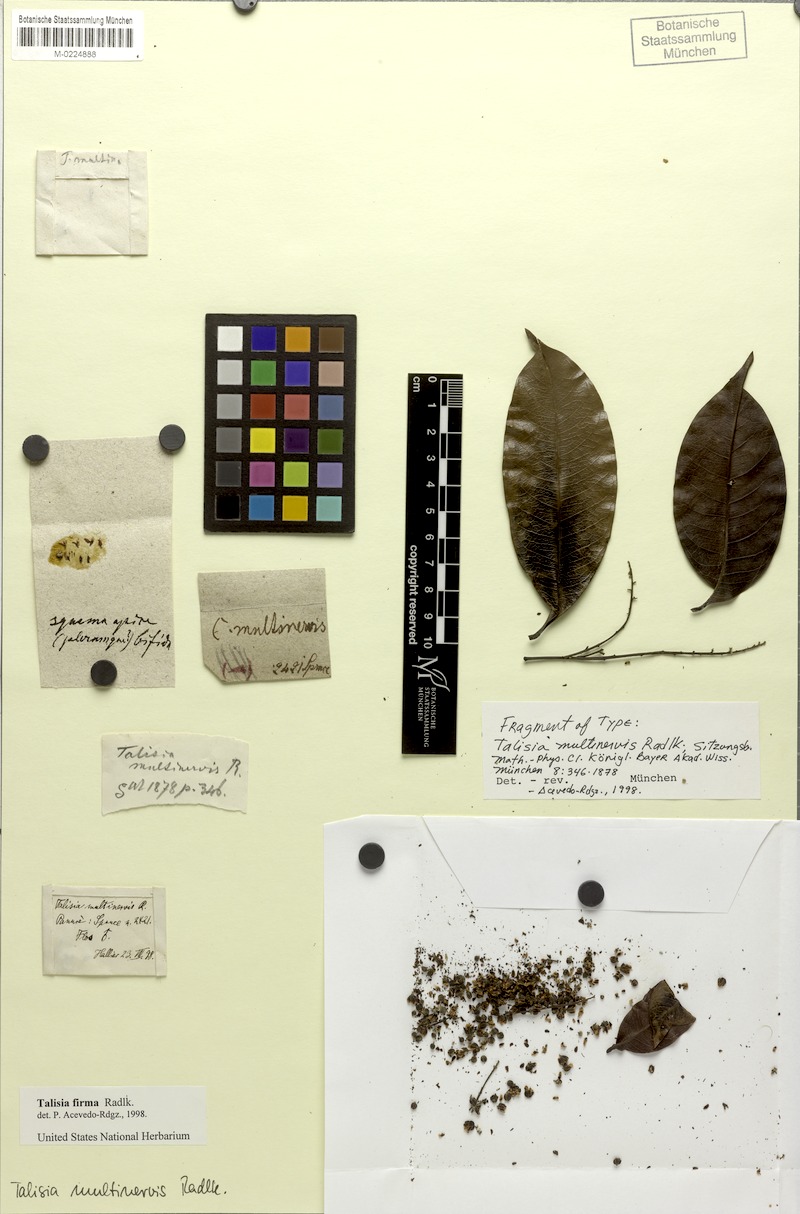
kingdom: Plantae
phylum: Tracheophyta
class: Magnoliopsida
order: Sapindales
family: Sapindaceae
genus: Talisia
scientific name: Talisia firma
